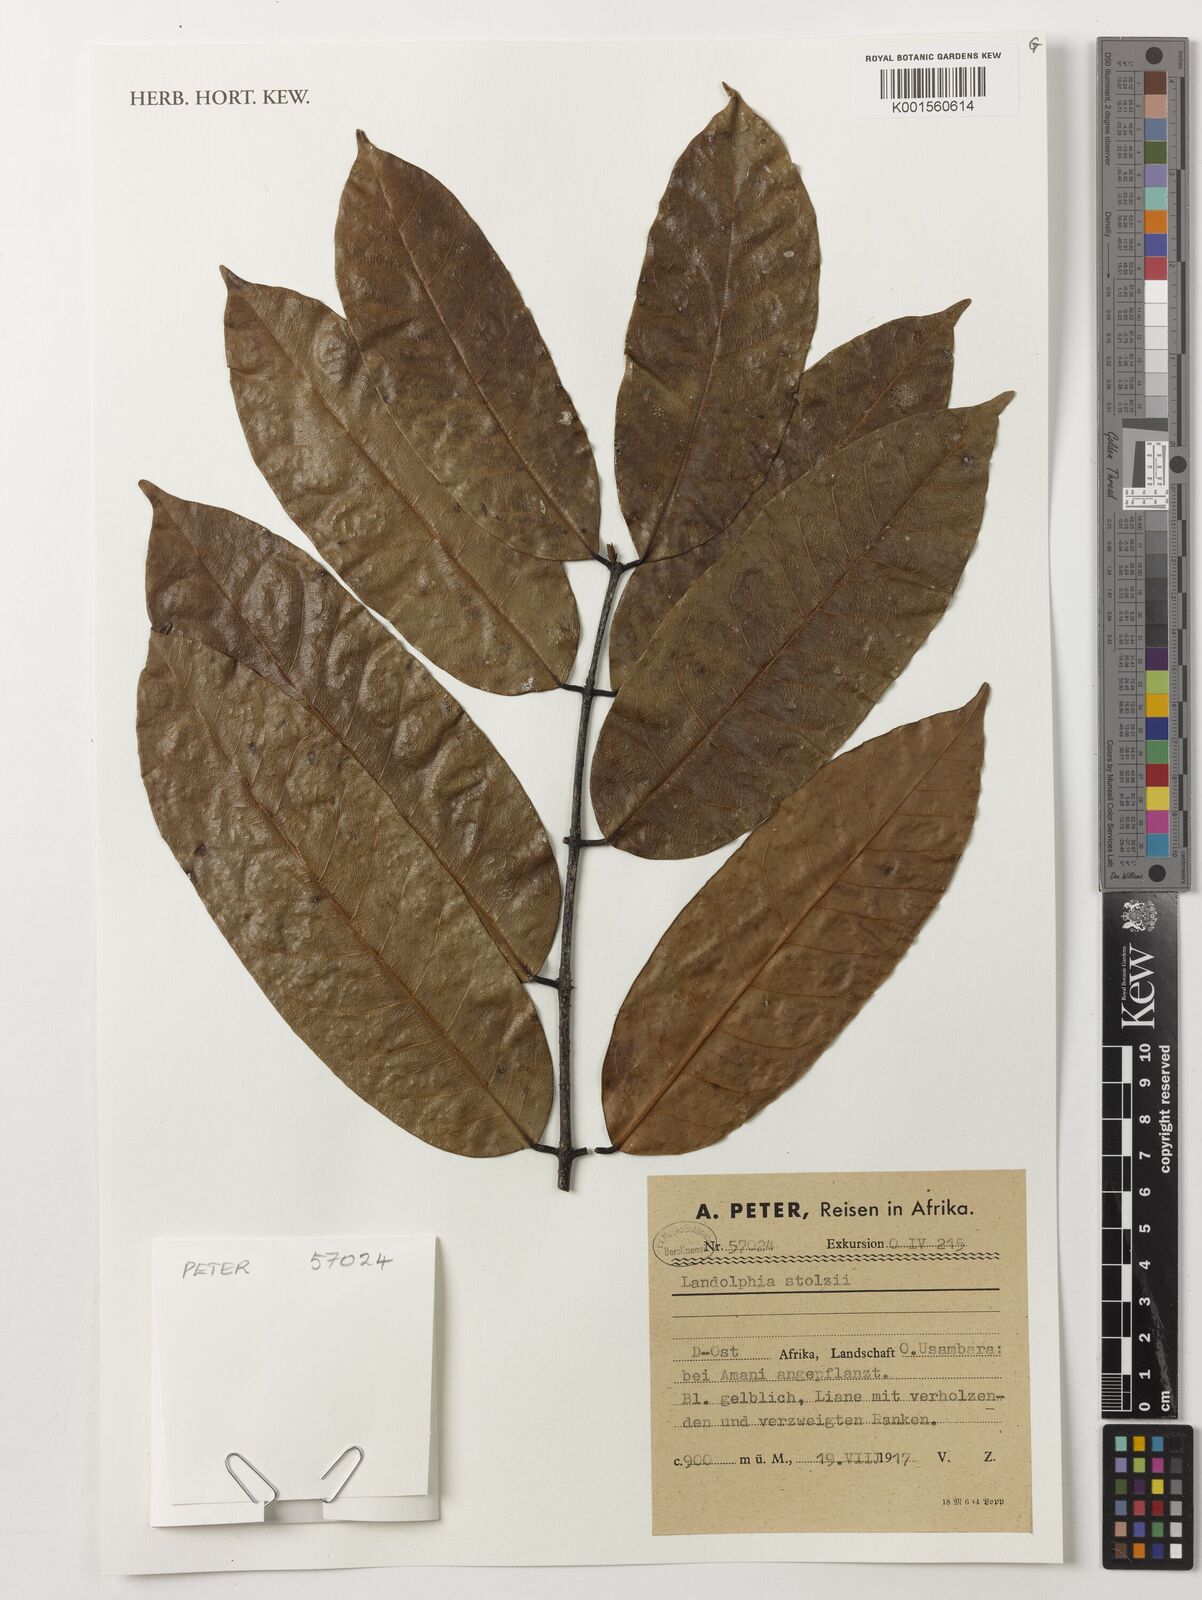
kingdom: Plantae
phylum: Tracheophyta
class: Magnoliopsida
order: Gentianales
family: Apocynaceae
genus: Landolphia
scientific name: Landolphia owariensis
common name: White-ball-rubber
